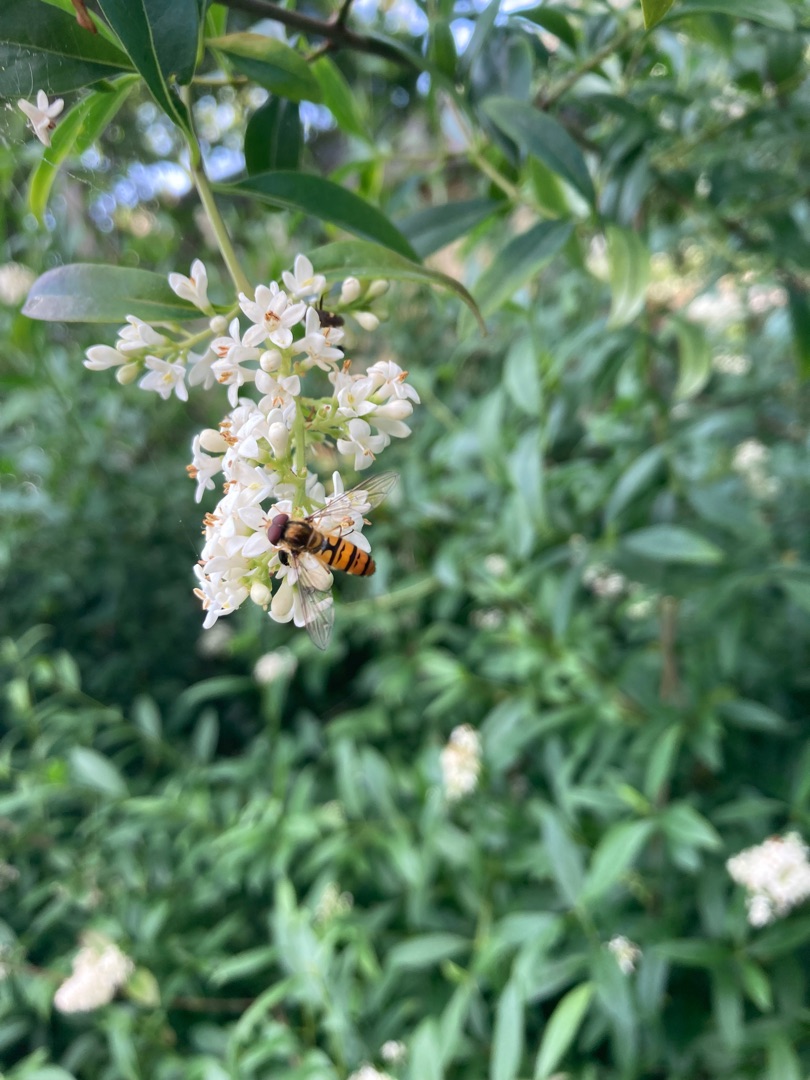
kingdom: Animalia
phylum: Arthropoda
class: Insecta
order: Diptera
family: Syrphidae
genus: Episyrphus
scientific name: Episyrphus balteatus
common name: Dobbeltbåndet svirreflue
